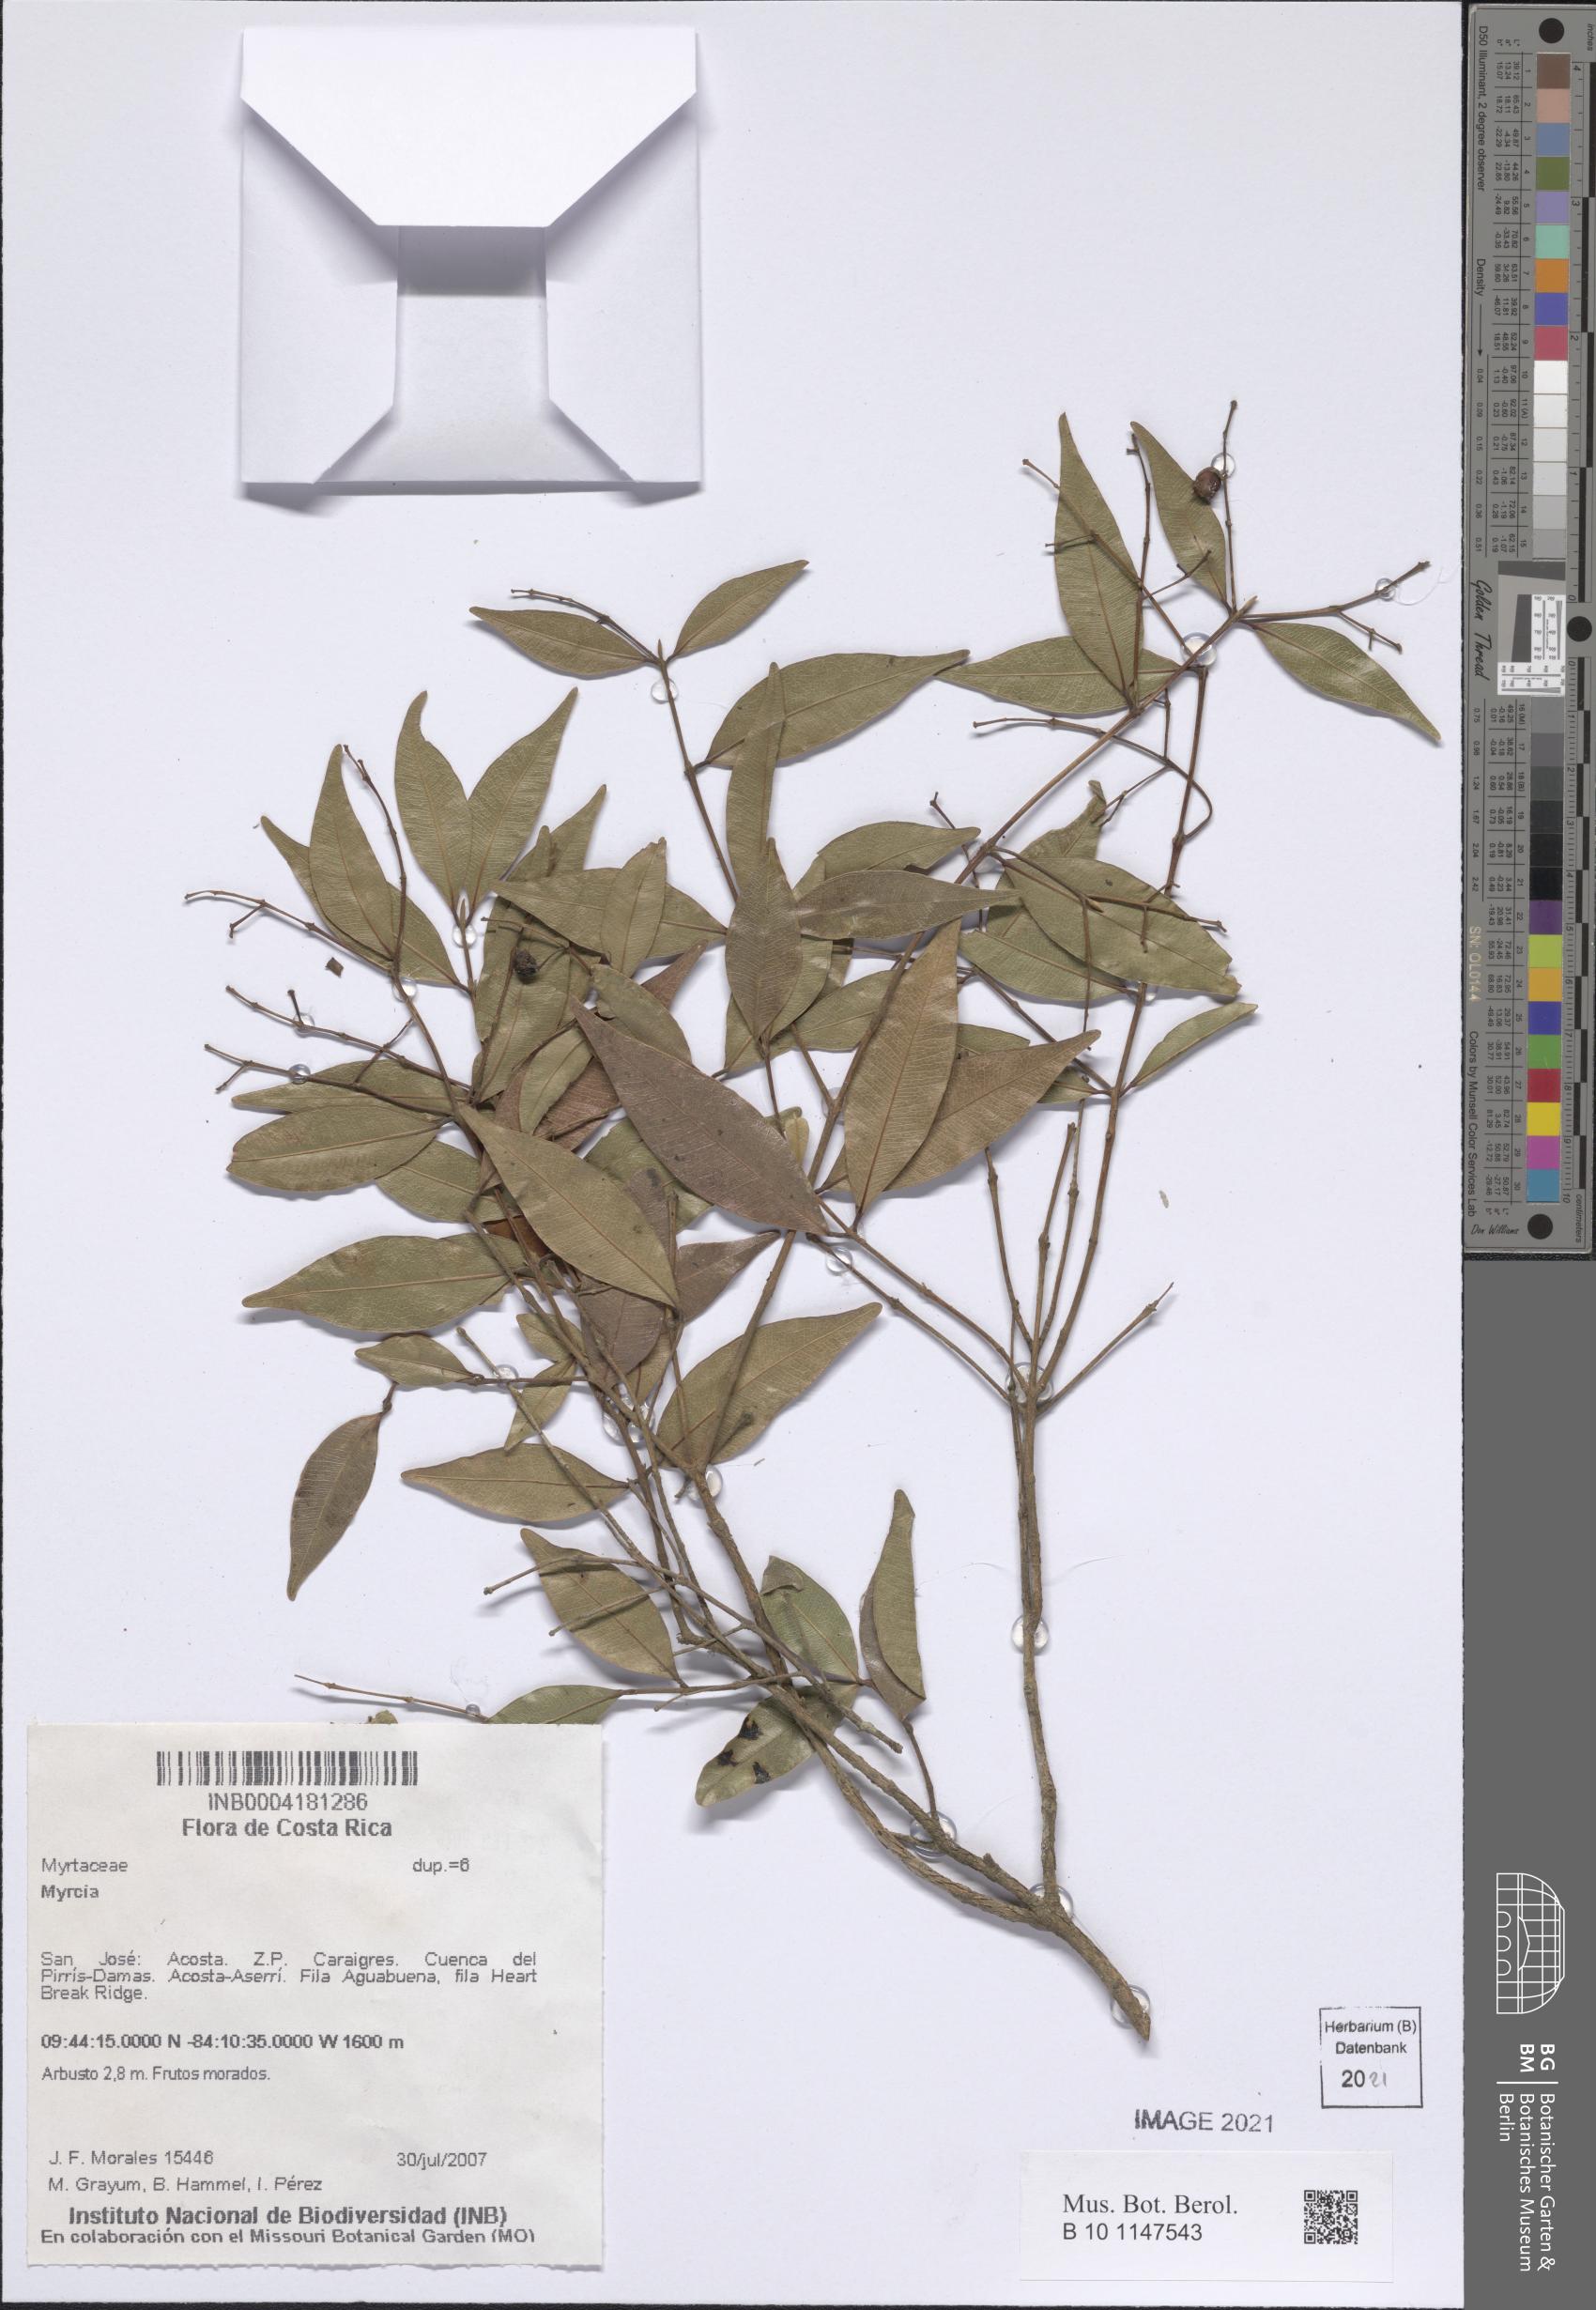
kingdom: Plantae
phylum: Tracheophyta
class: Magnoliopsida
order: Myrtales
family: Myrtaceae
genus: Myrcia
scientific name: Myrcia
